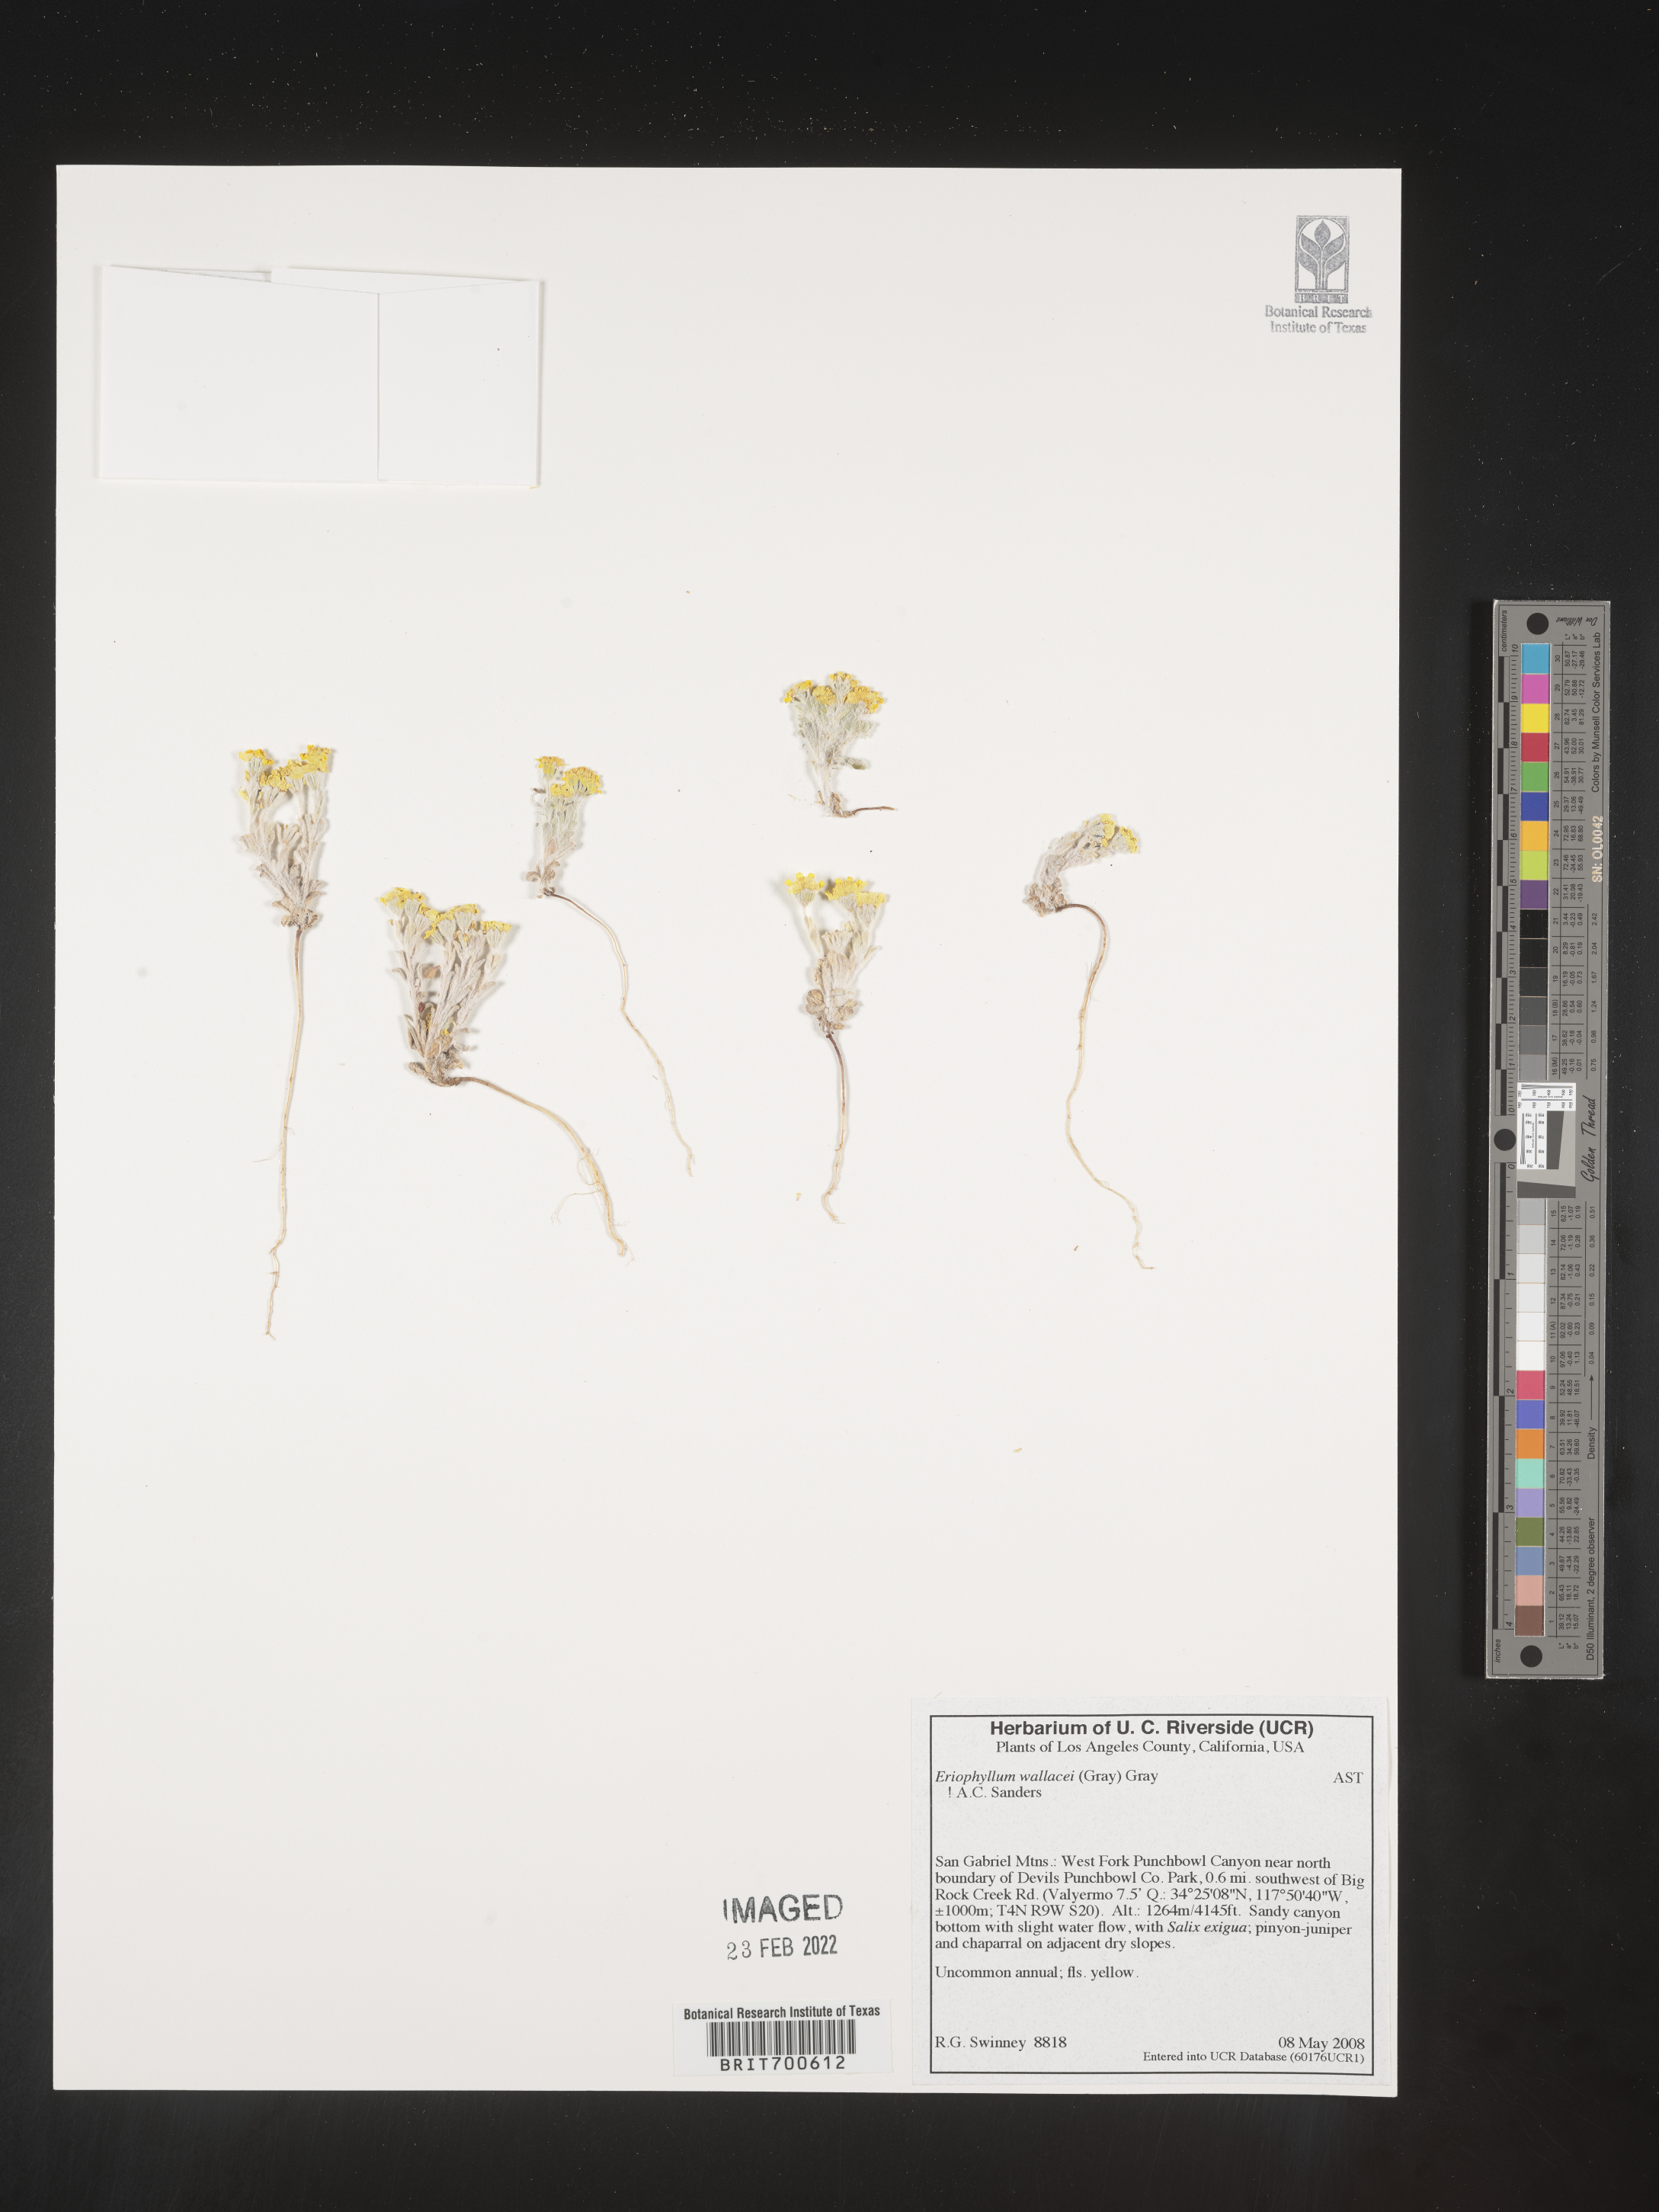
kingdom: Plantae
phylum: Tracheophyta
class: Magnoliopsida
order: Asterales
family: Asteraceae
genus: Eriophyllum
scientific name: Eriophyllum wallacei
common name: Wallace's woolly daisy
